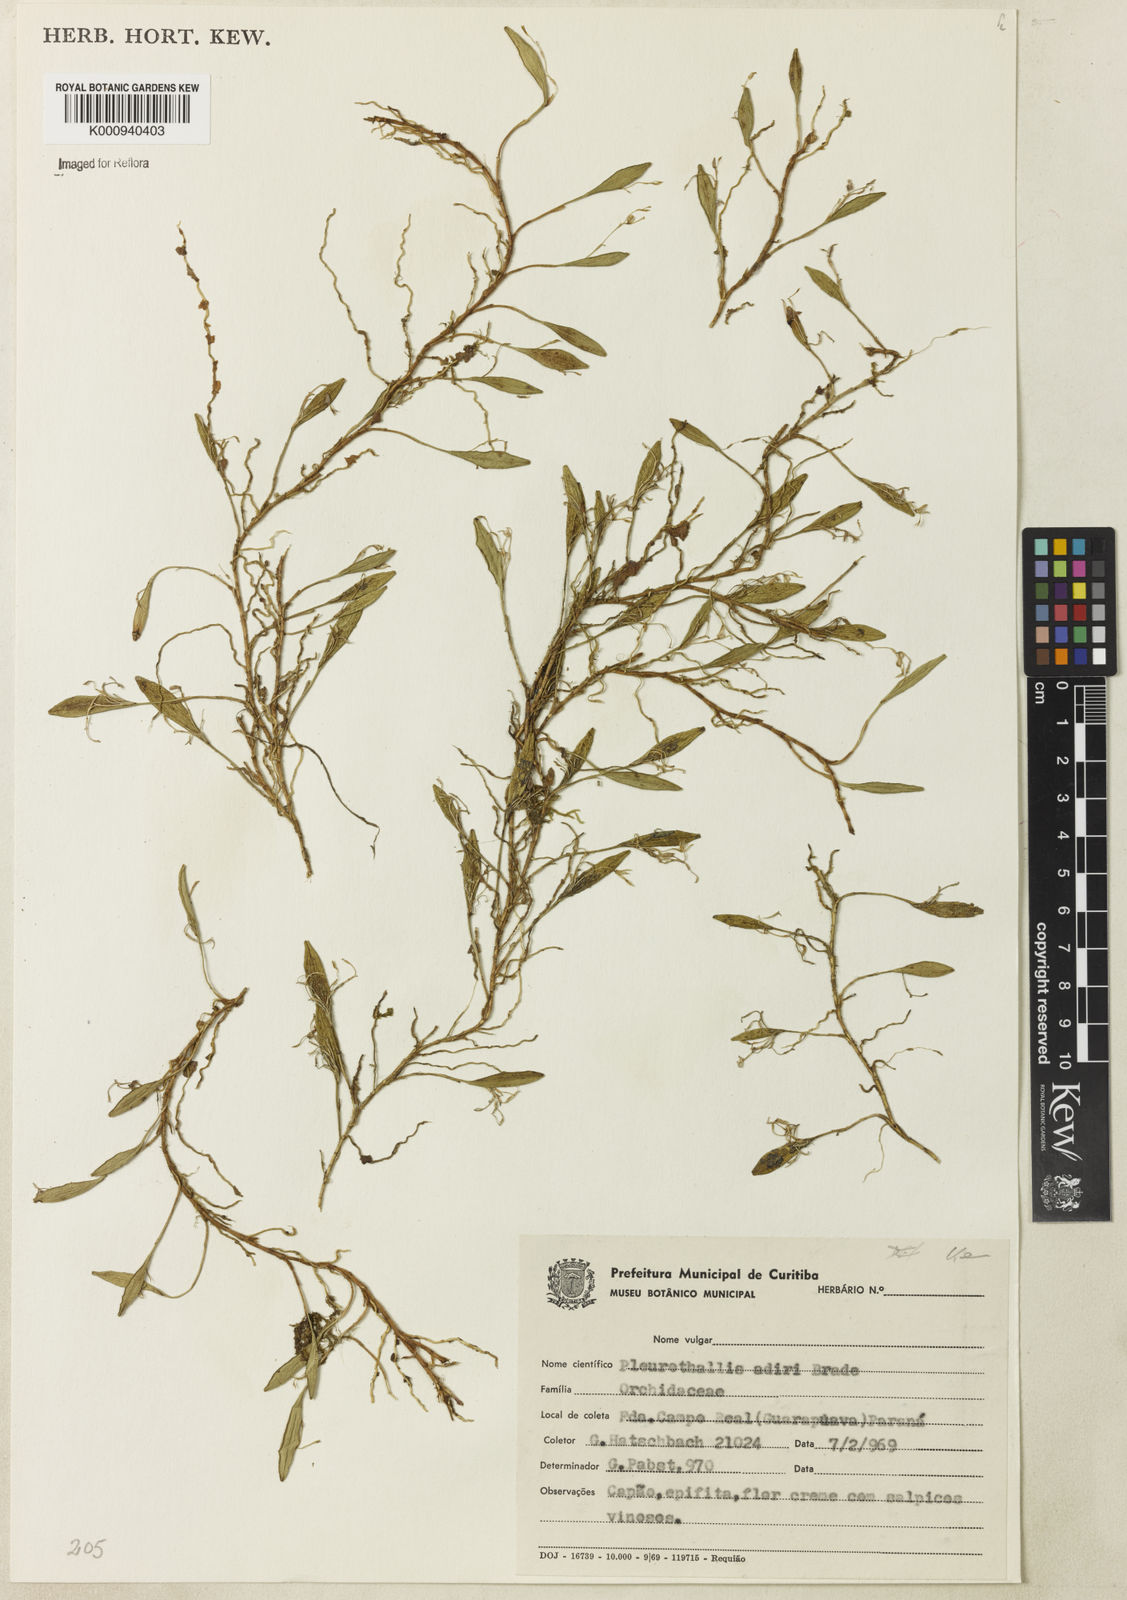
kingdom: Plantae
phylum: Tracheophyta
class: Liliopsida
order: Asparagales
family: Orchidaceae
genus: Acianthera
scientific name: Acianthera adirii
